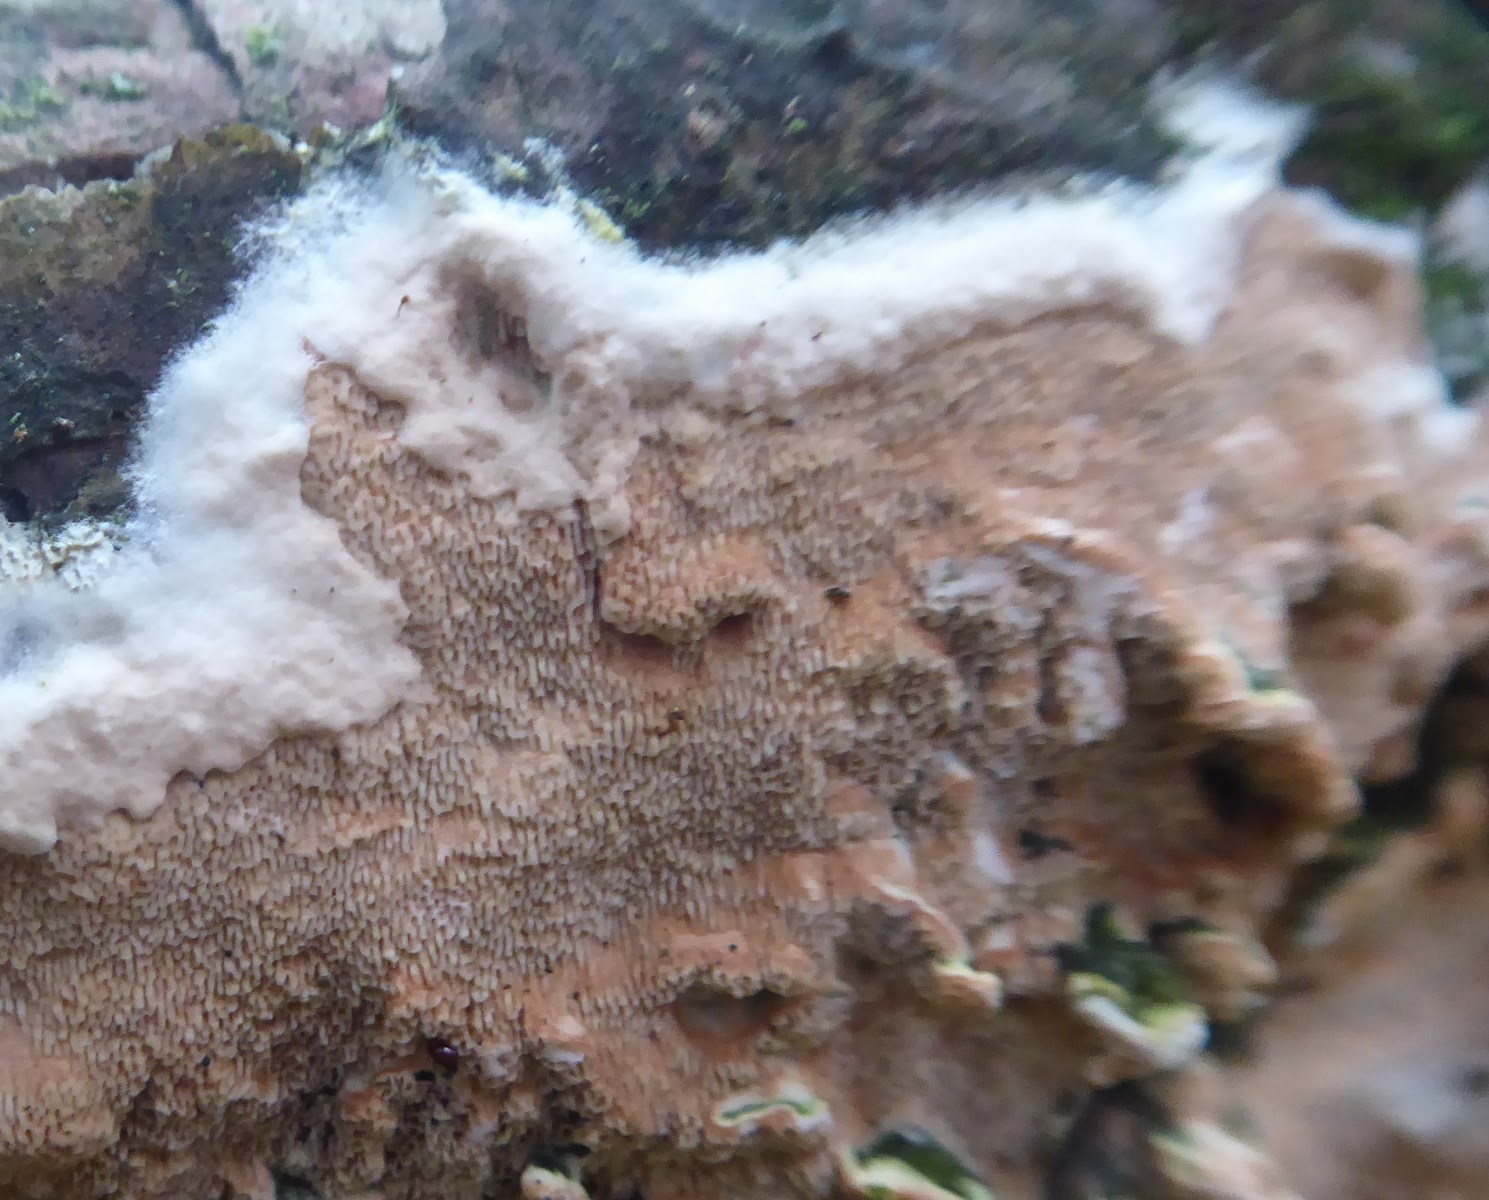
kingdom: Fungi
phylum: Basidiomycota
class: Agaricomycetes
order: Polyporales
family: Irpicaceae
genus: Meruliopsis
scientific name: Meruliopsis taxicola
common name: purpurbrun foldporesvamp
